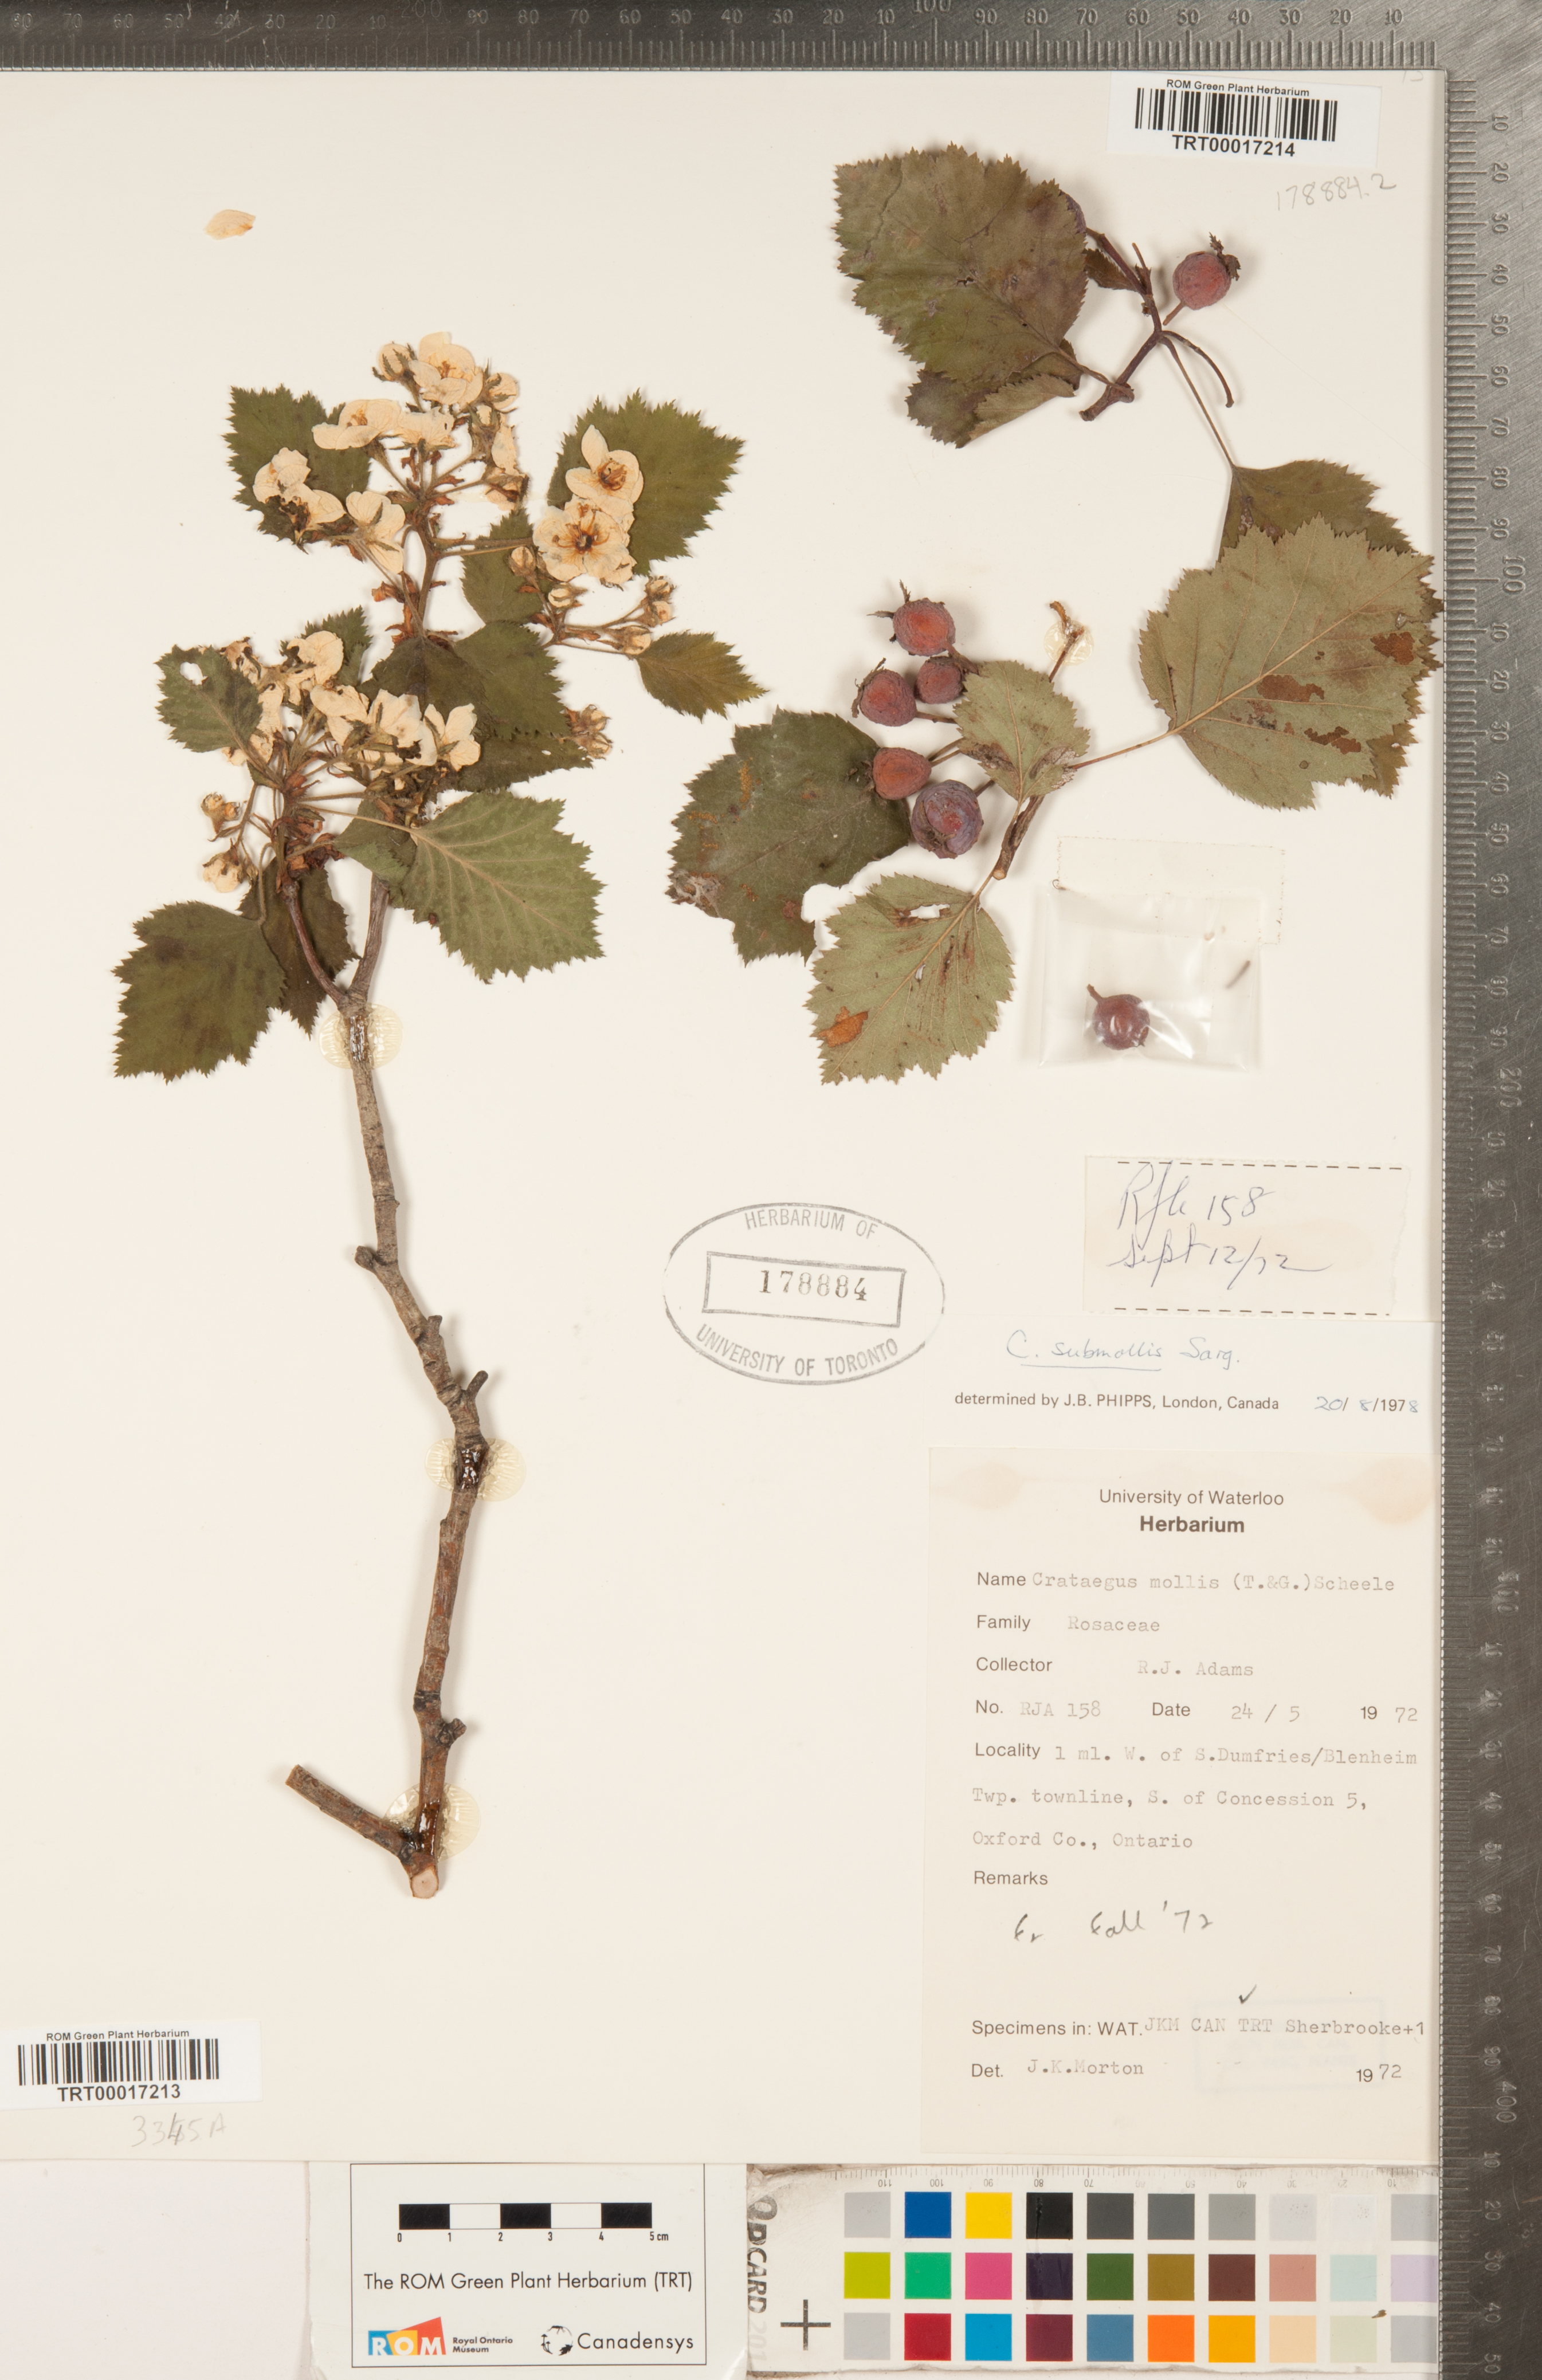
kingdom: Plantae
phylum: Tracheophyta
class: Magnoliopsida
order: Rosales
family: Rosaceae
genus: Crataegus
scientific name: Crataegus submollis
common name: Hairy cockspurthorn
